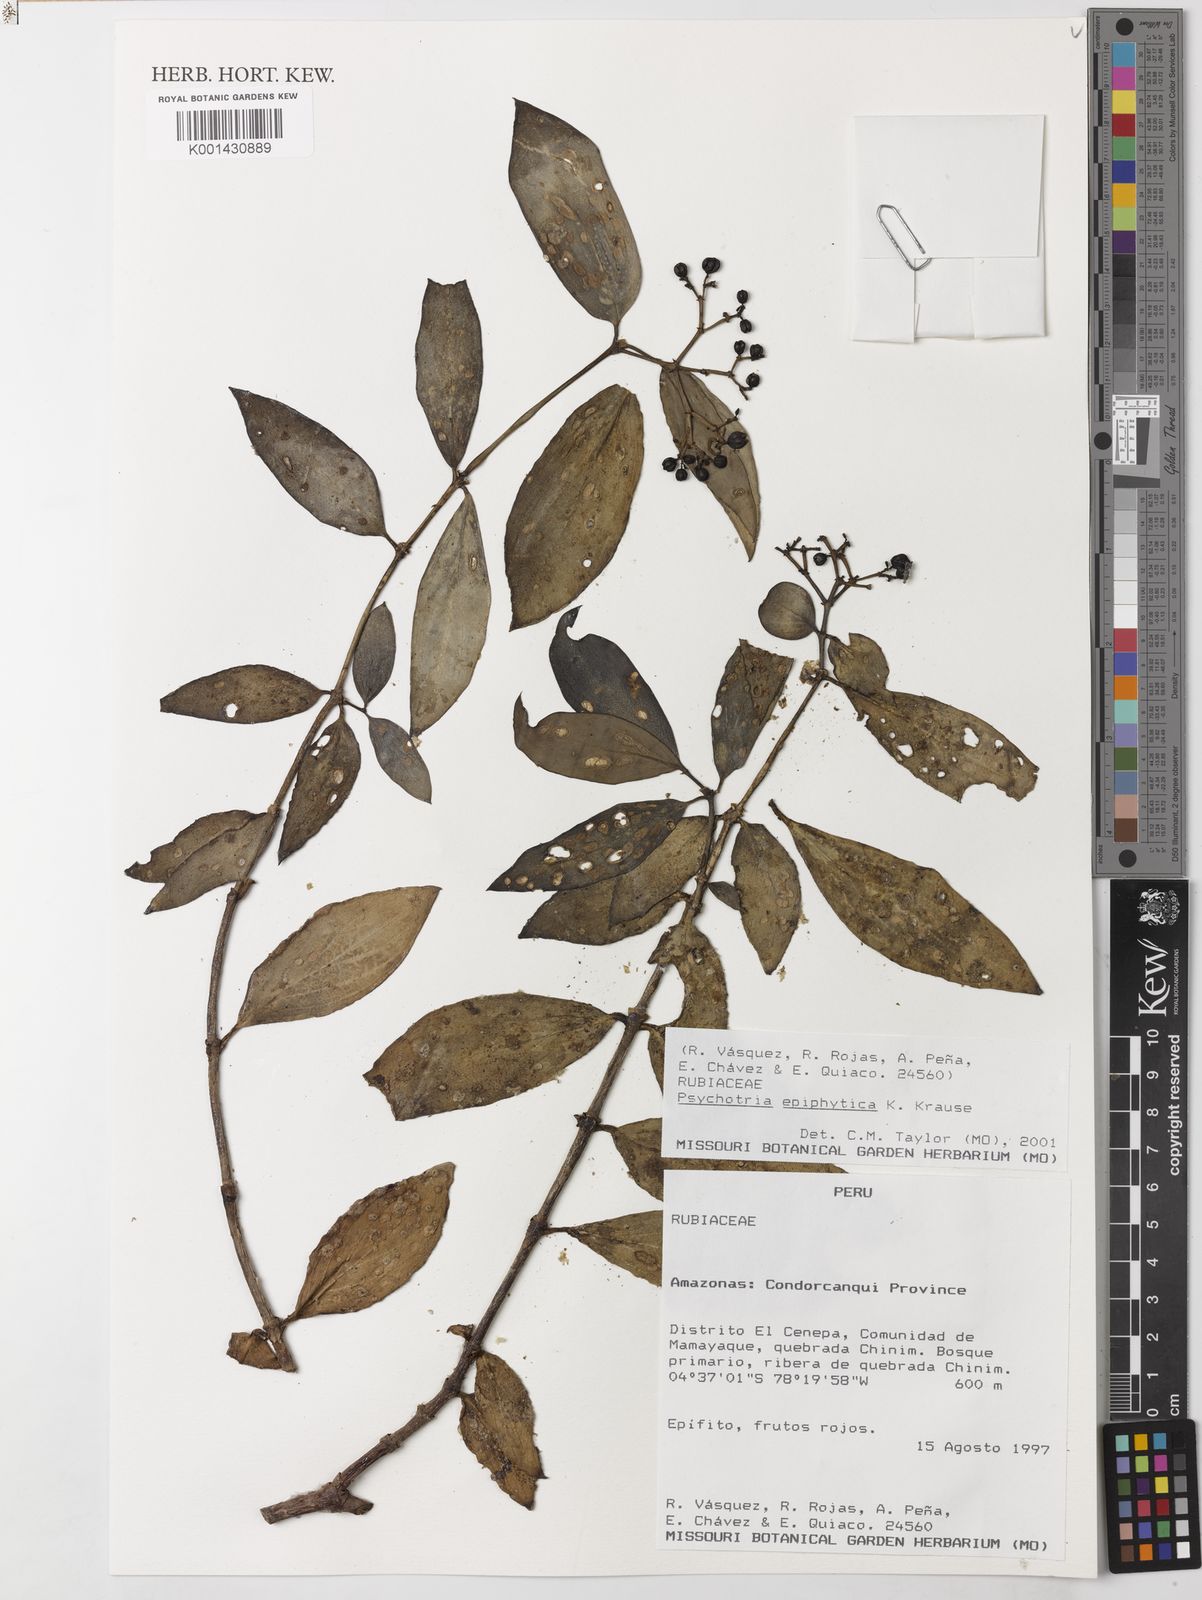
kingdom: Plantae
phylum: Tracheophyta
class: Magnoliopsida
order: Gentianales
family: Rubiaceae
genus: Notopleura
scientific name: Notopleura epiphytica
